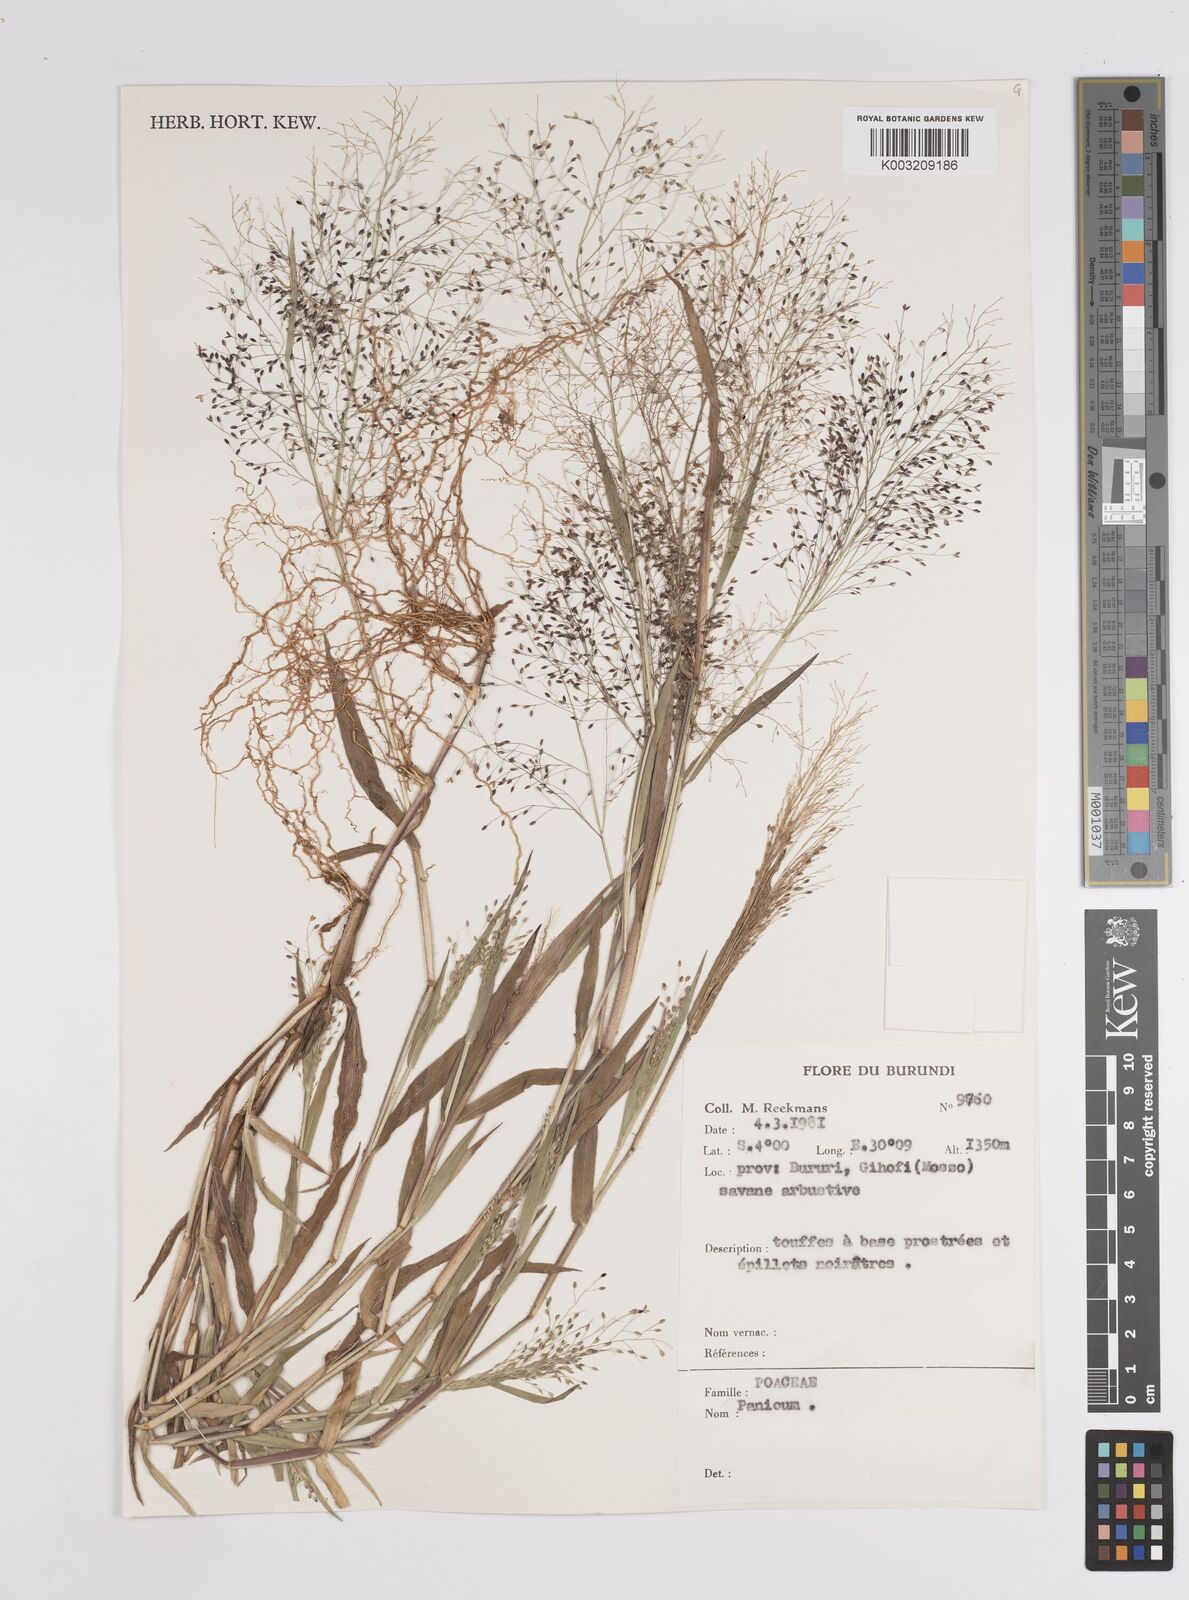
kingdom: Plantae
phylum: Tracheophyta
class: Liliopsida
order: Poales
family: Poaceae
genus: Panicum
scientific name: Panicum
